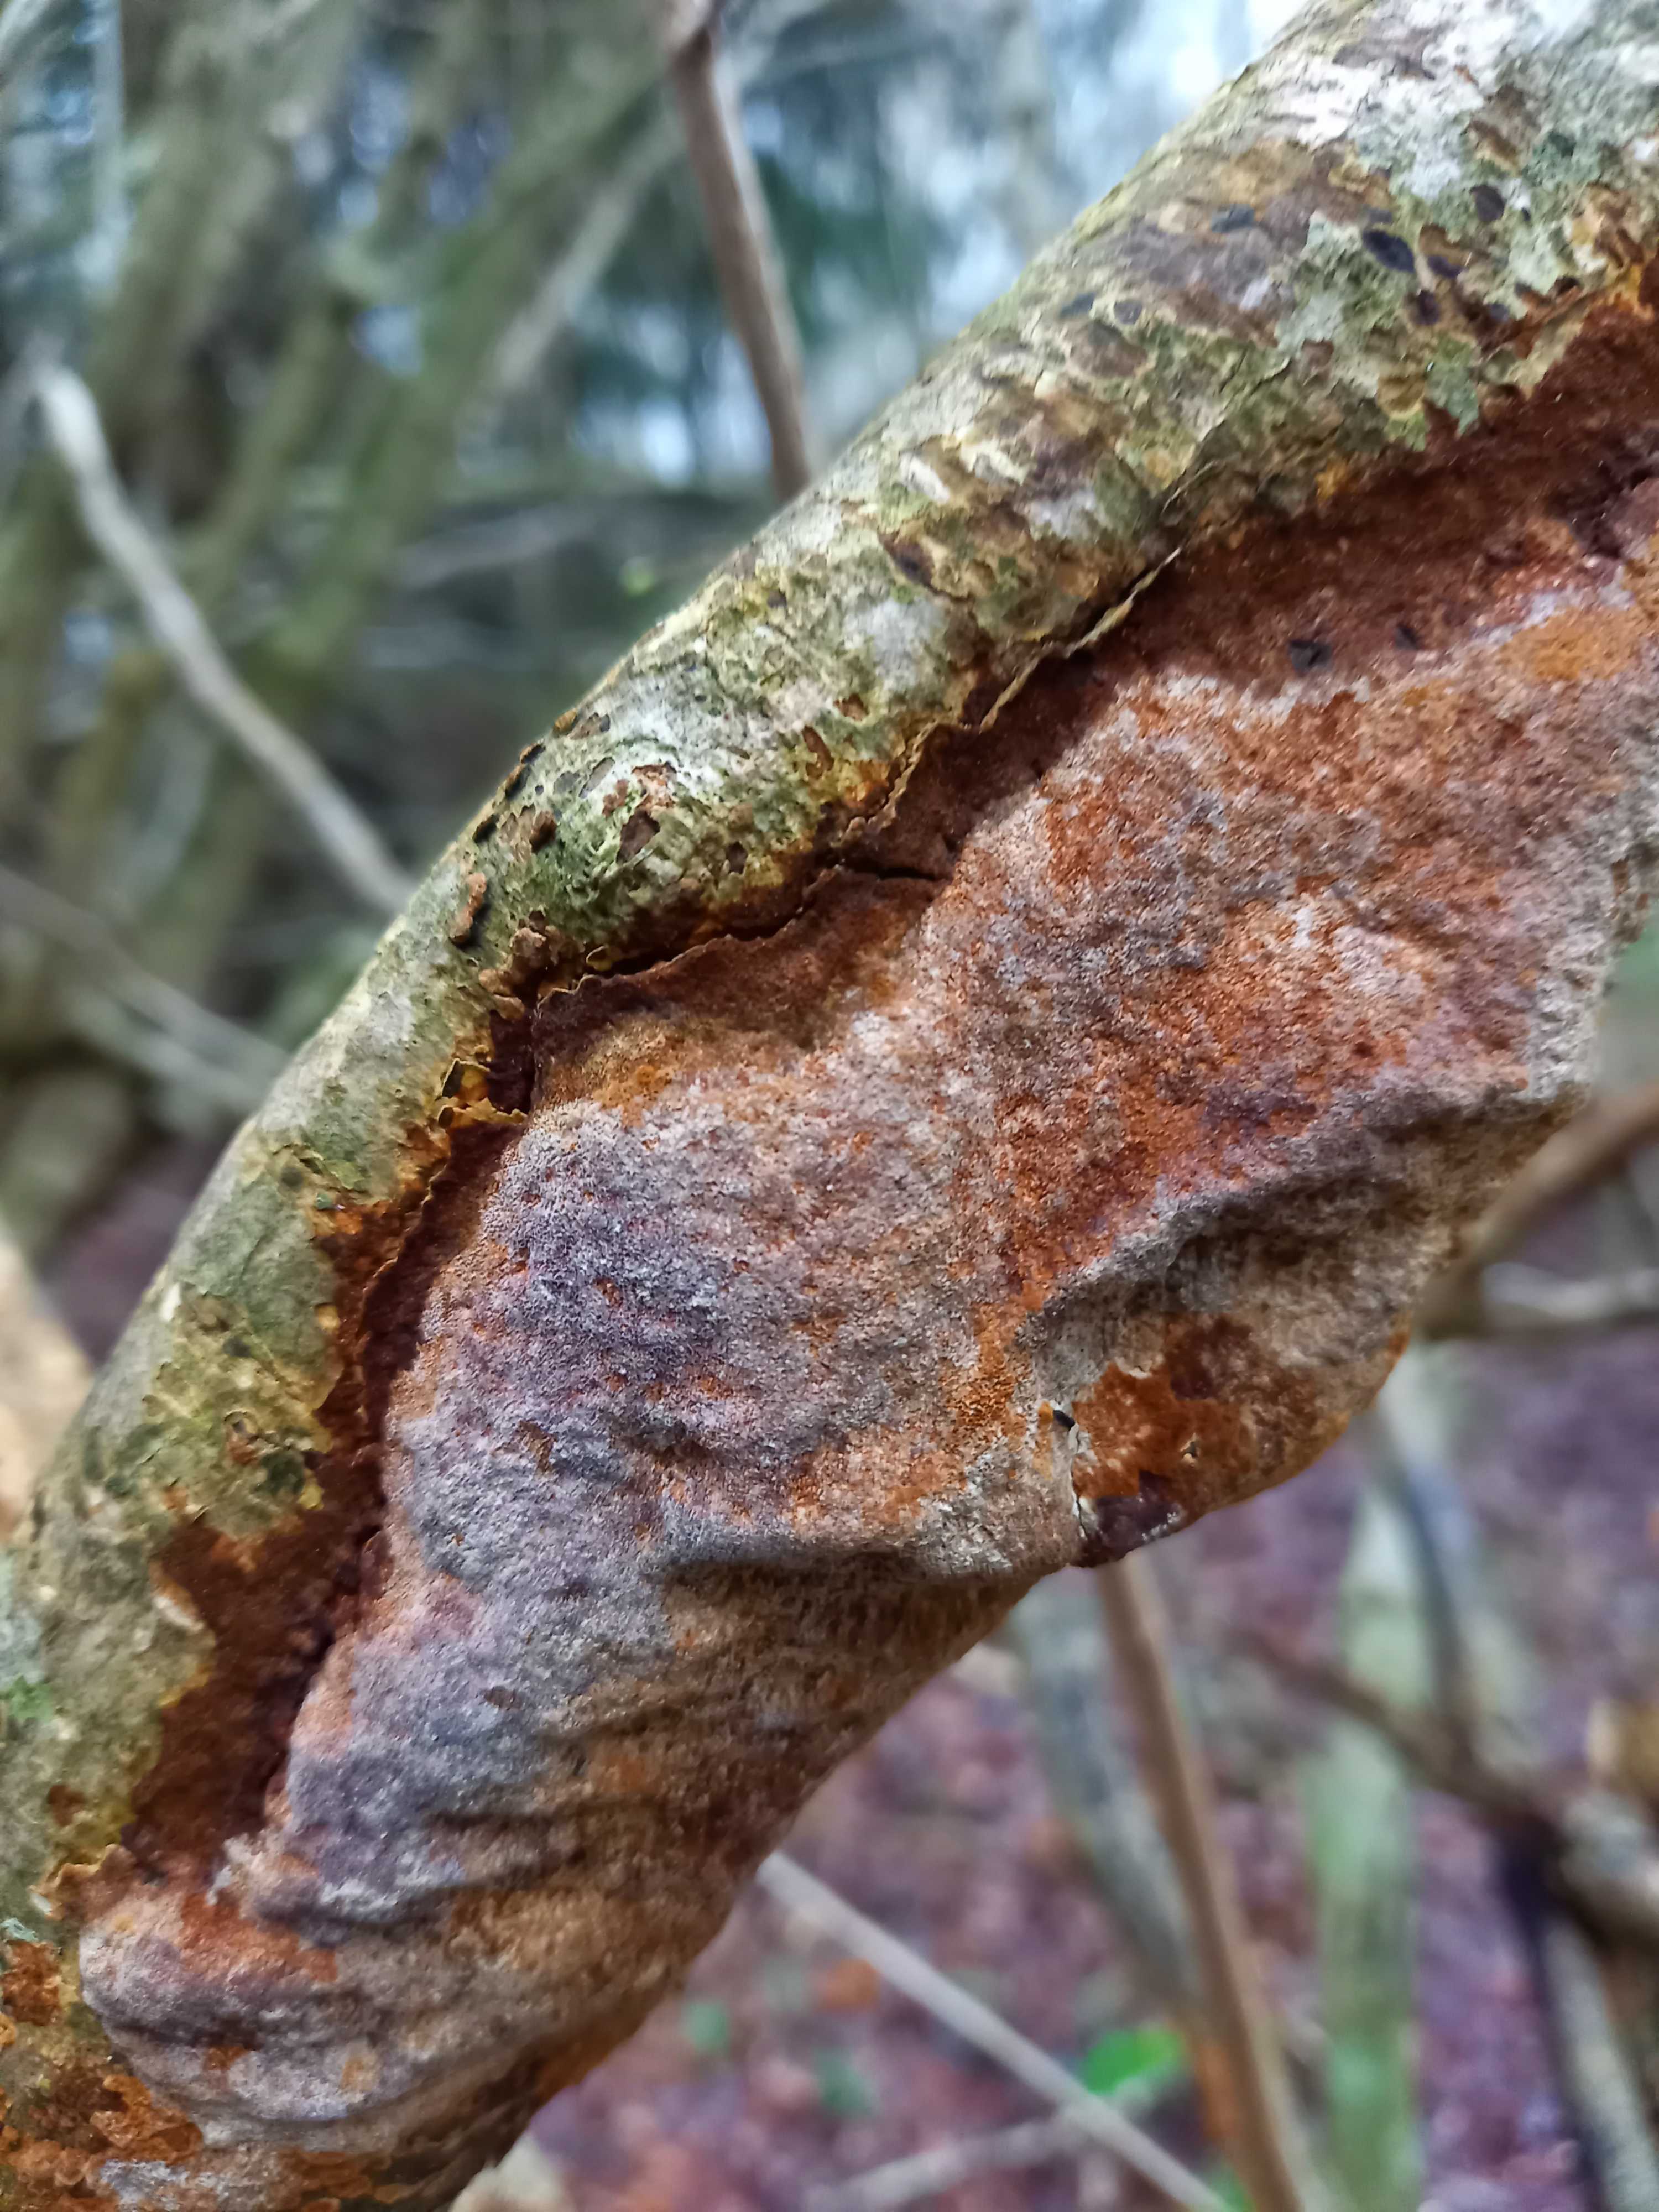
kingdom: Fungi
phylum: Basidiomycota
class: Agaricomycetes
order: Hymenochaetales
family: Hymenochaetaceae
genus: Fuscoporia
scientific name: Fuscoporia ferrea
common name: skorpe-ildporesvamp
